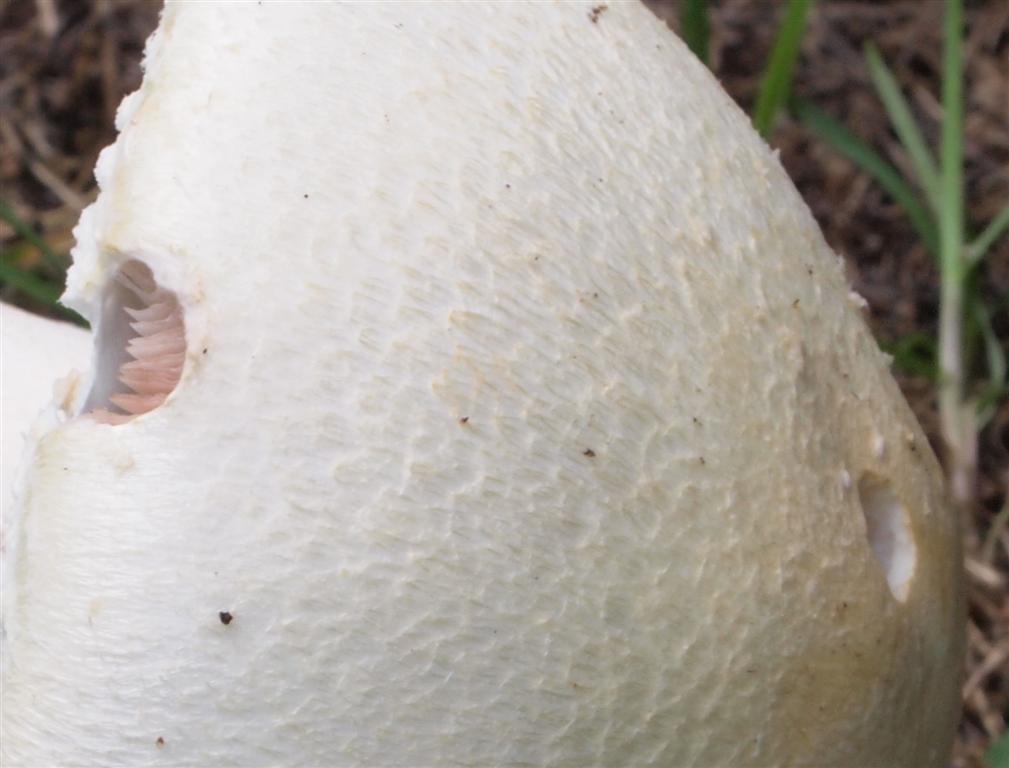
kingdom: Fungi
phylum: Basidiomycota
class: Agaricomycetes
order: Agaricales
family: Agaricaceae
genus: Agaricus
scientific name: Agaricus arvensis
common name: ager-champignon
